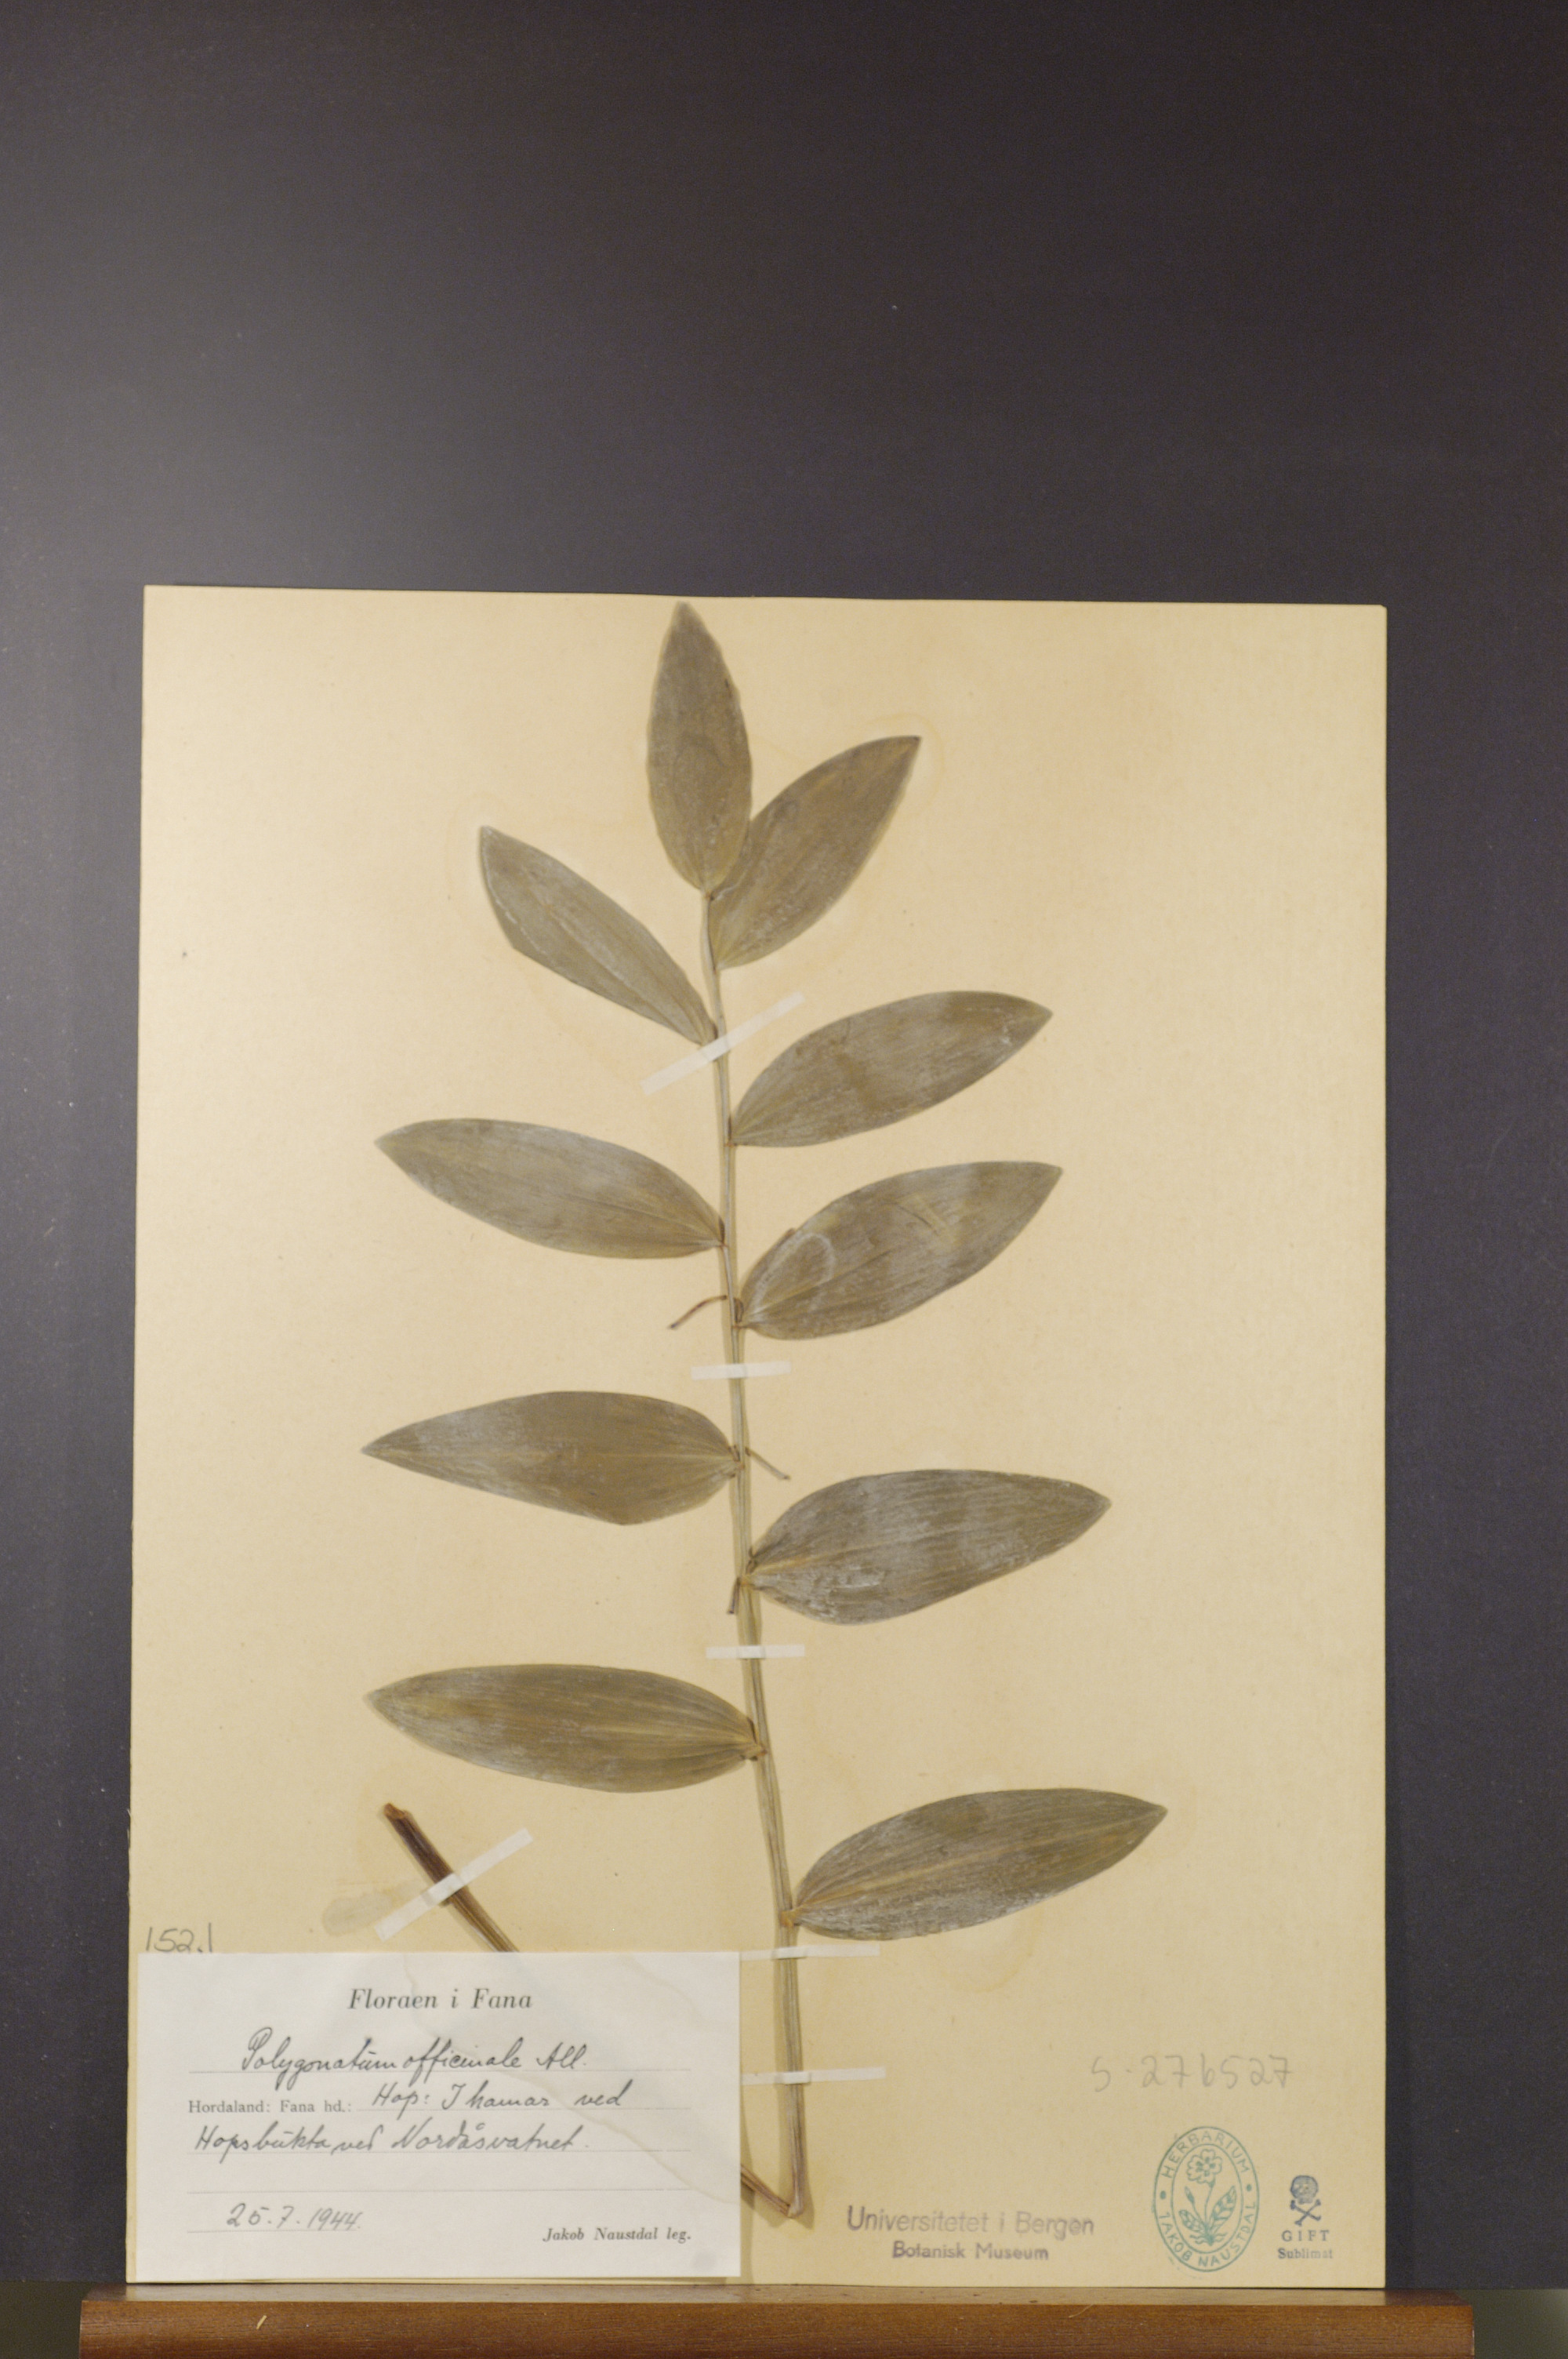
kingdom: Plantae
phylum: Tracheophyta
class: Liliopsida
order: Asparagales
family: Asparagaceae
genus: Polygonatum
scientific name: Polygonatum odoratum
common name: Angular solomon's-seal
